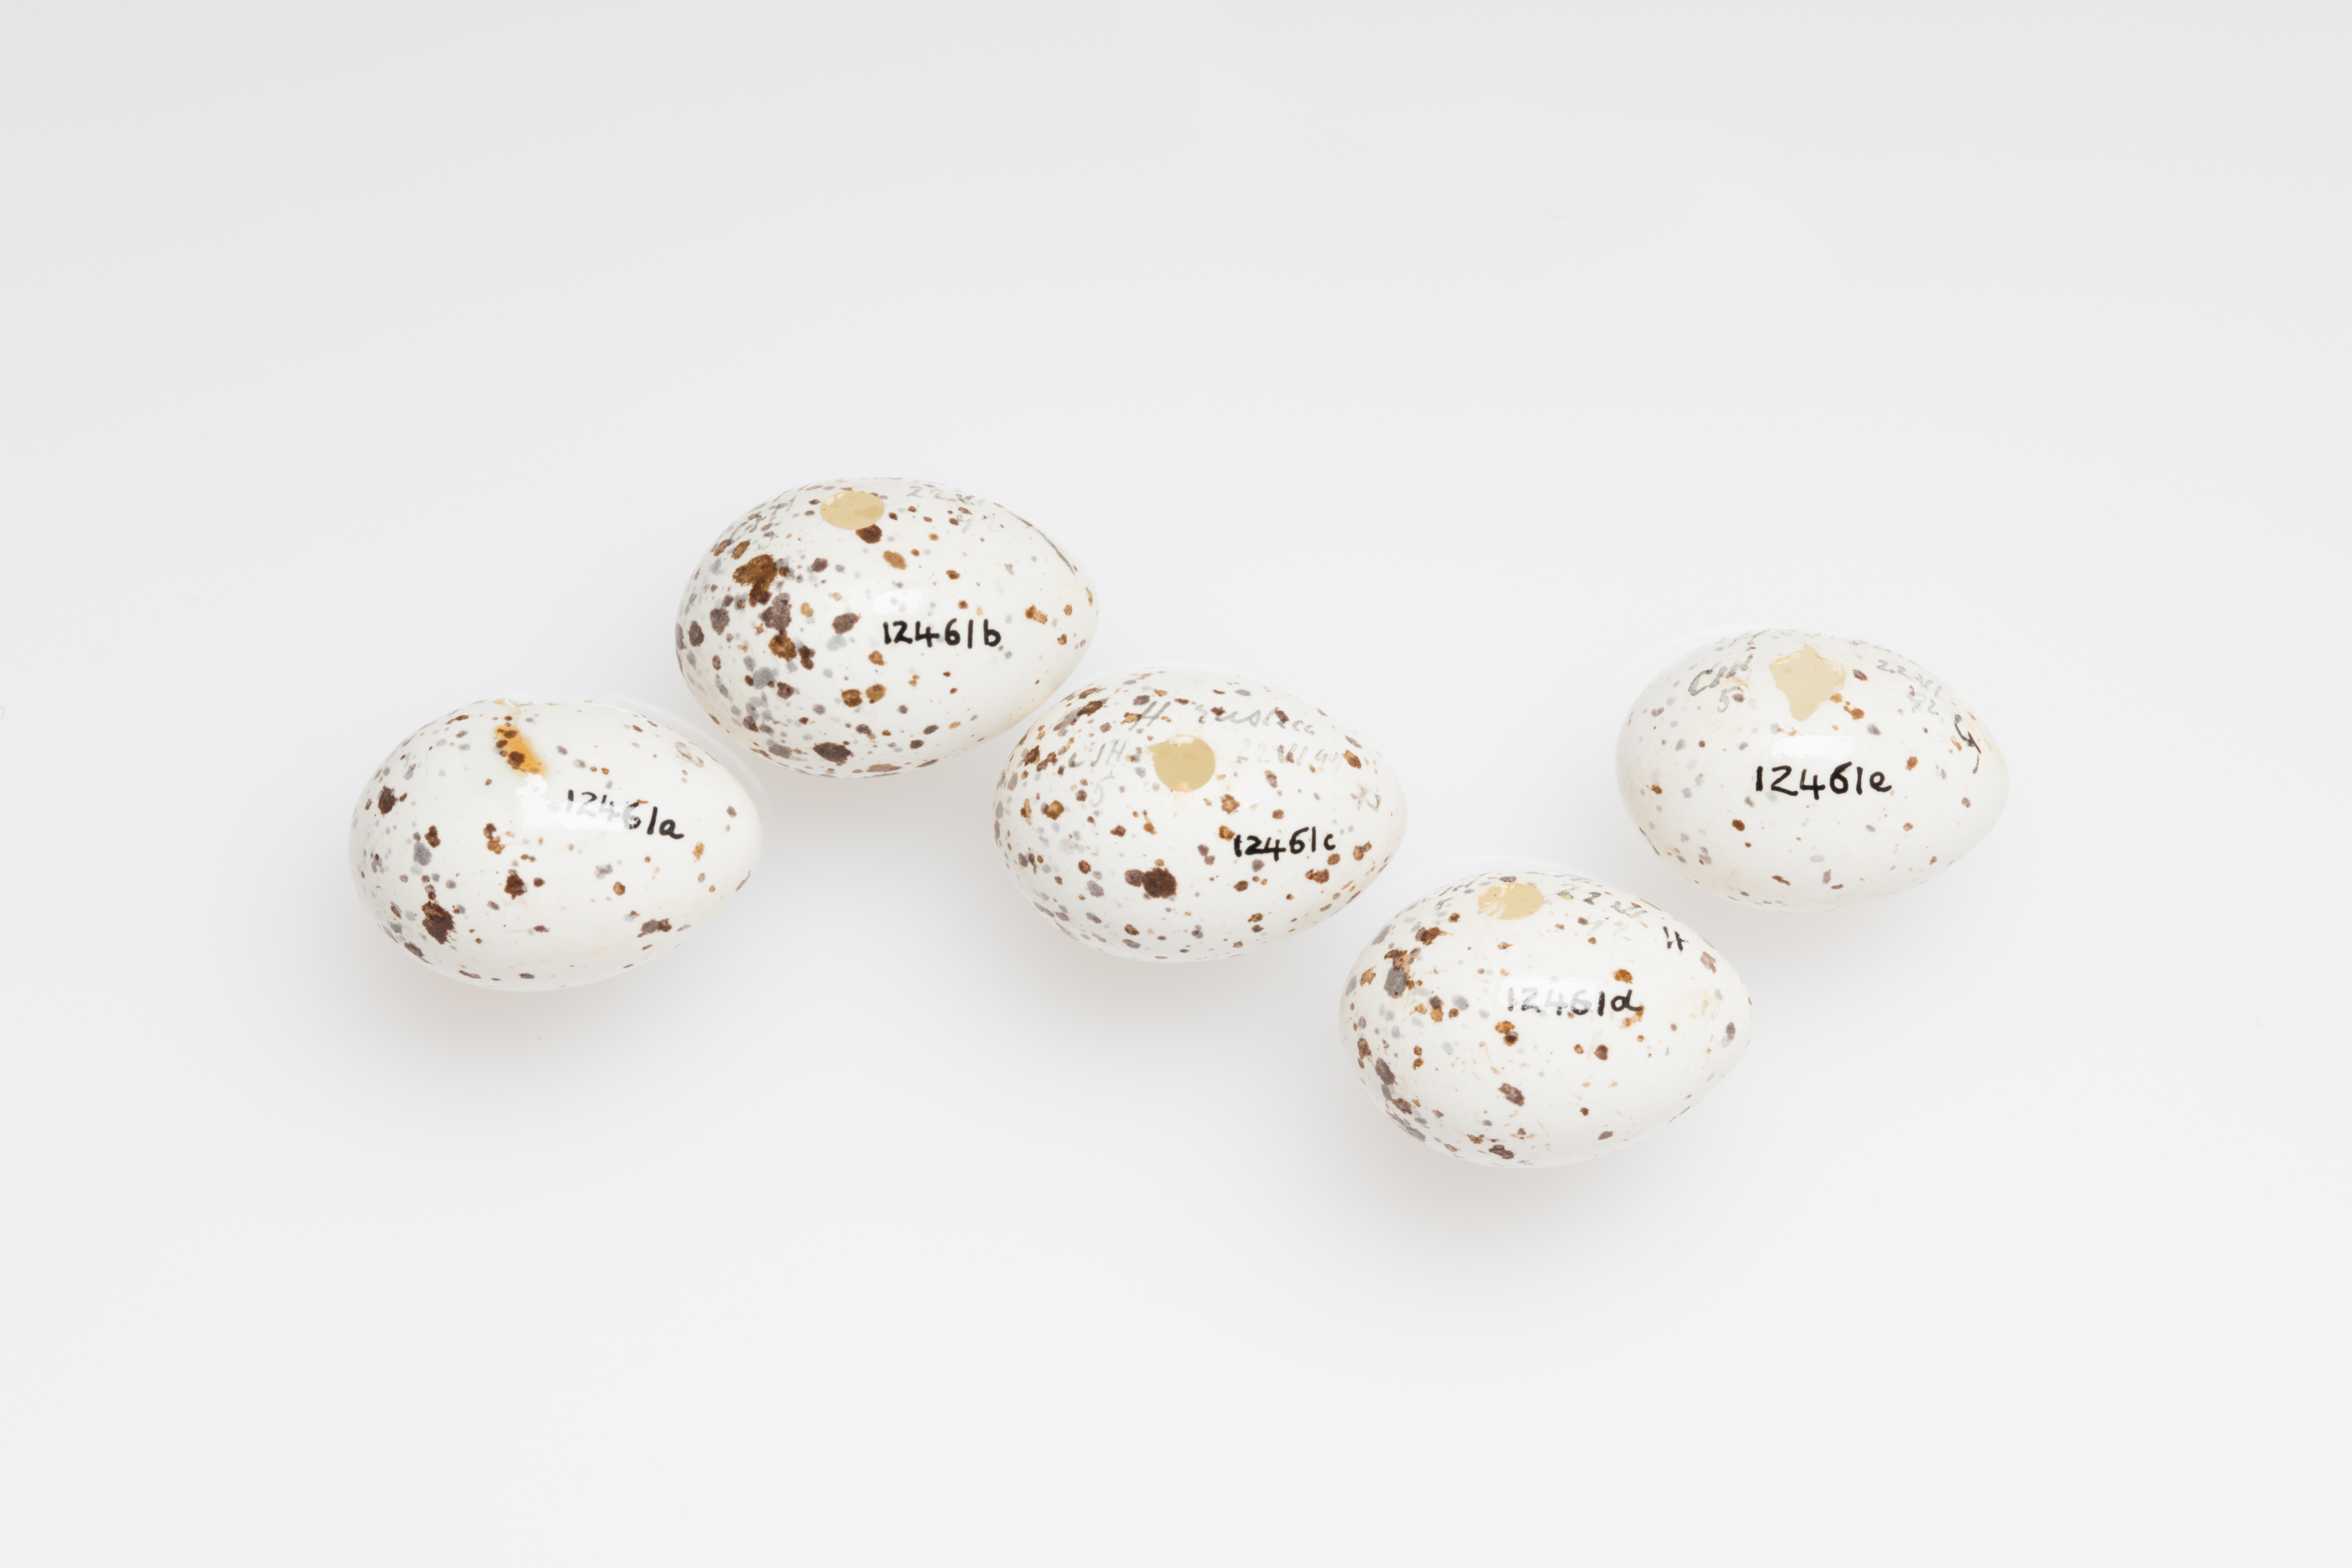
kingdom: Animalia
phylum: Chordata
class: Aves
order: Passeriformes
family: Hirundinidae
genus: Hirundo
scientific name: Hirundo rustica
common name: Barn swallow
